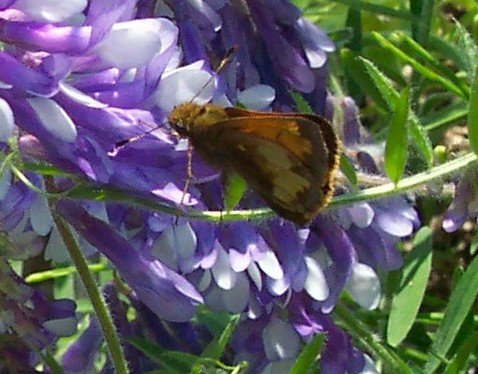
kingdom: Animalia
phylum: Arthropoda
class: Insecta
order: Lepidoptera
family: Hesperiidae
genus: Lon
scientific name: Lon hobomok
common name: Hobomok Skipper
